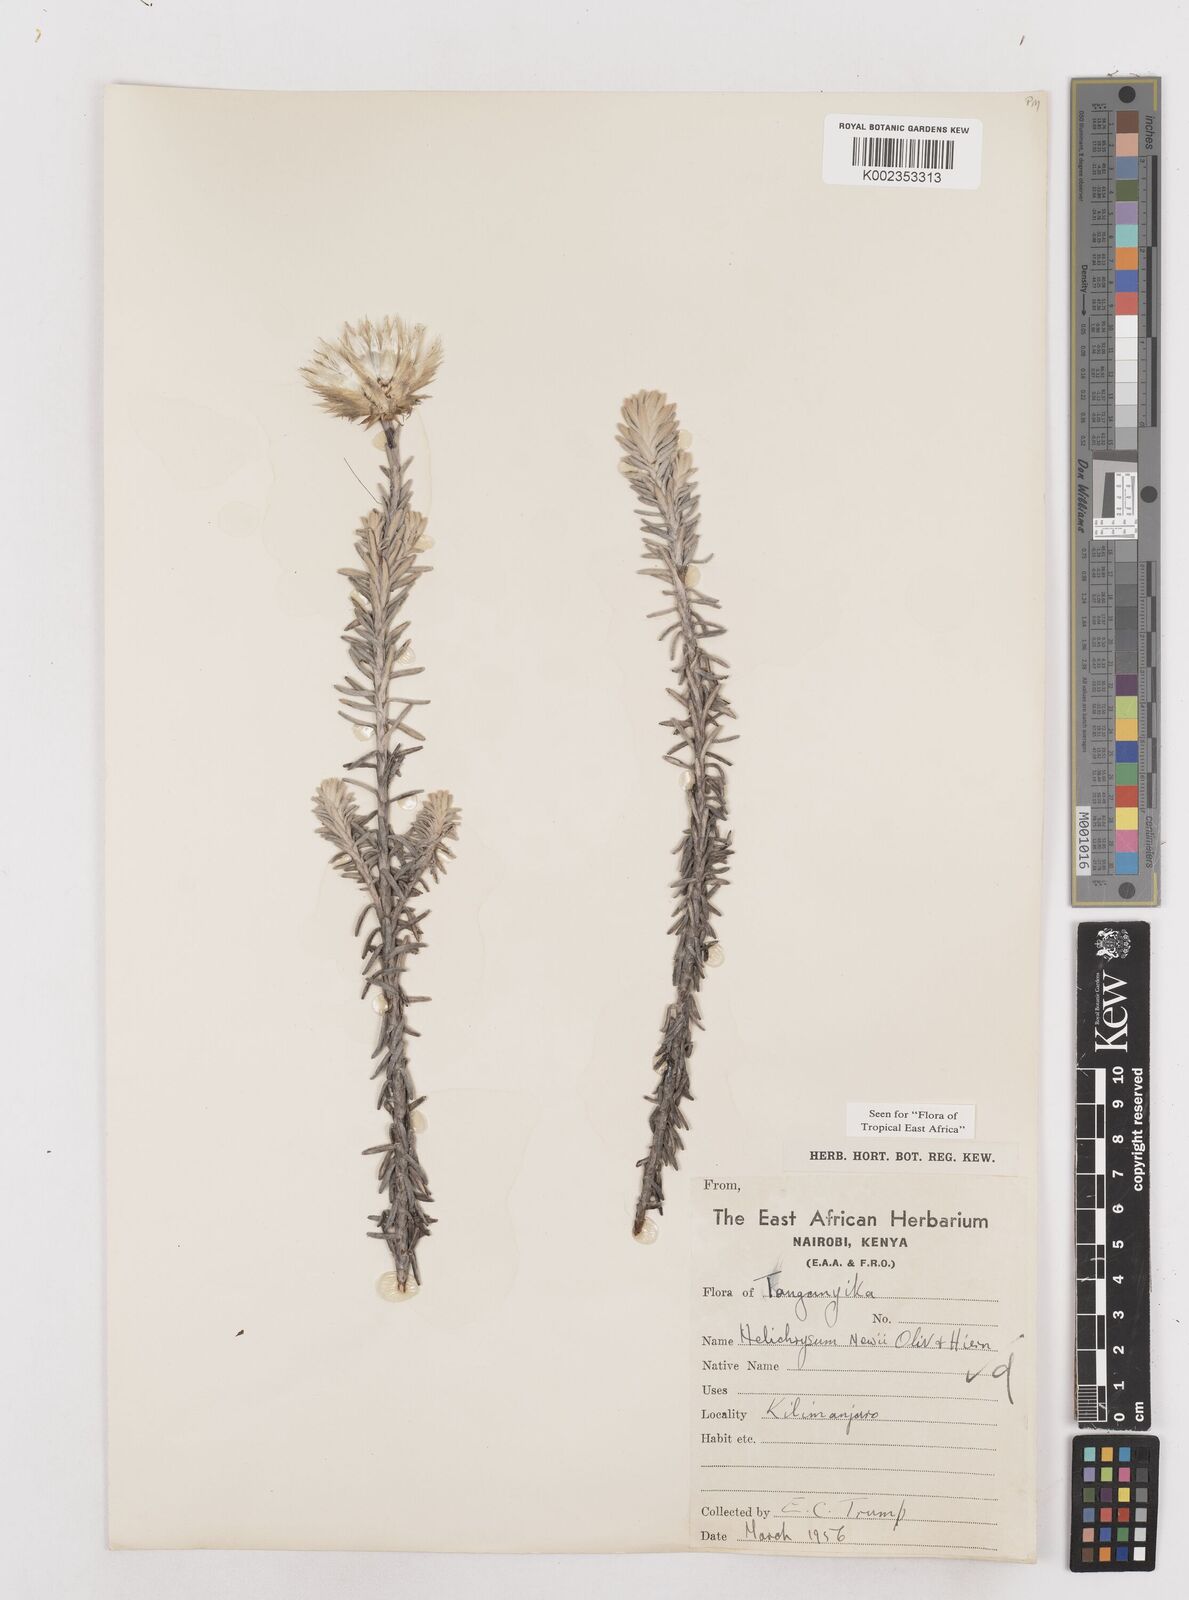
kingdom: Plantae
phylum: Tracheophyta
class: Magnoliopsida
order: Asterales
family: Asteraceae
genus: Helichrysum
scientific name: Helichrysum newii
